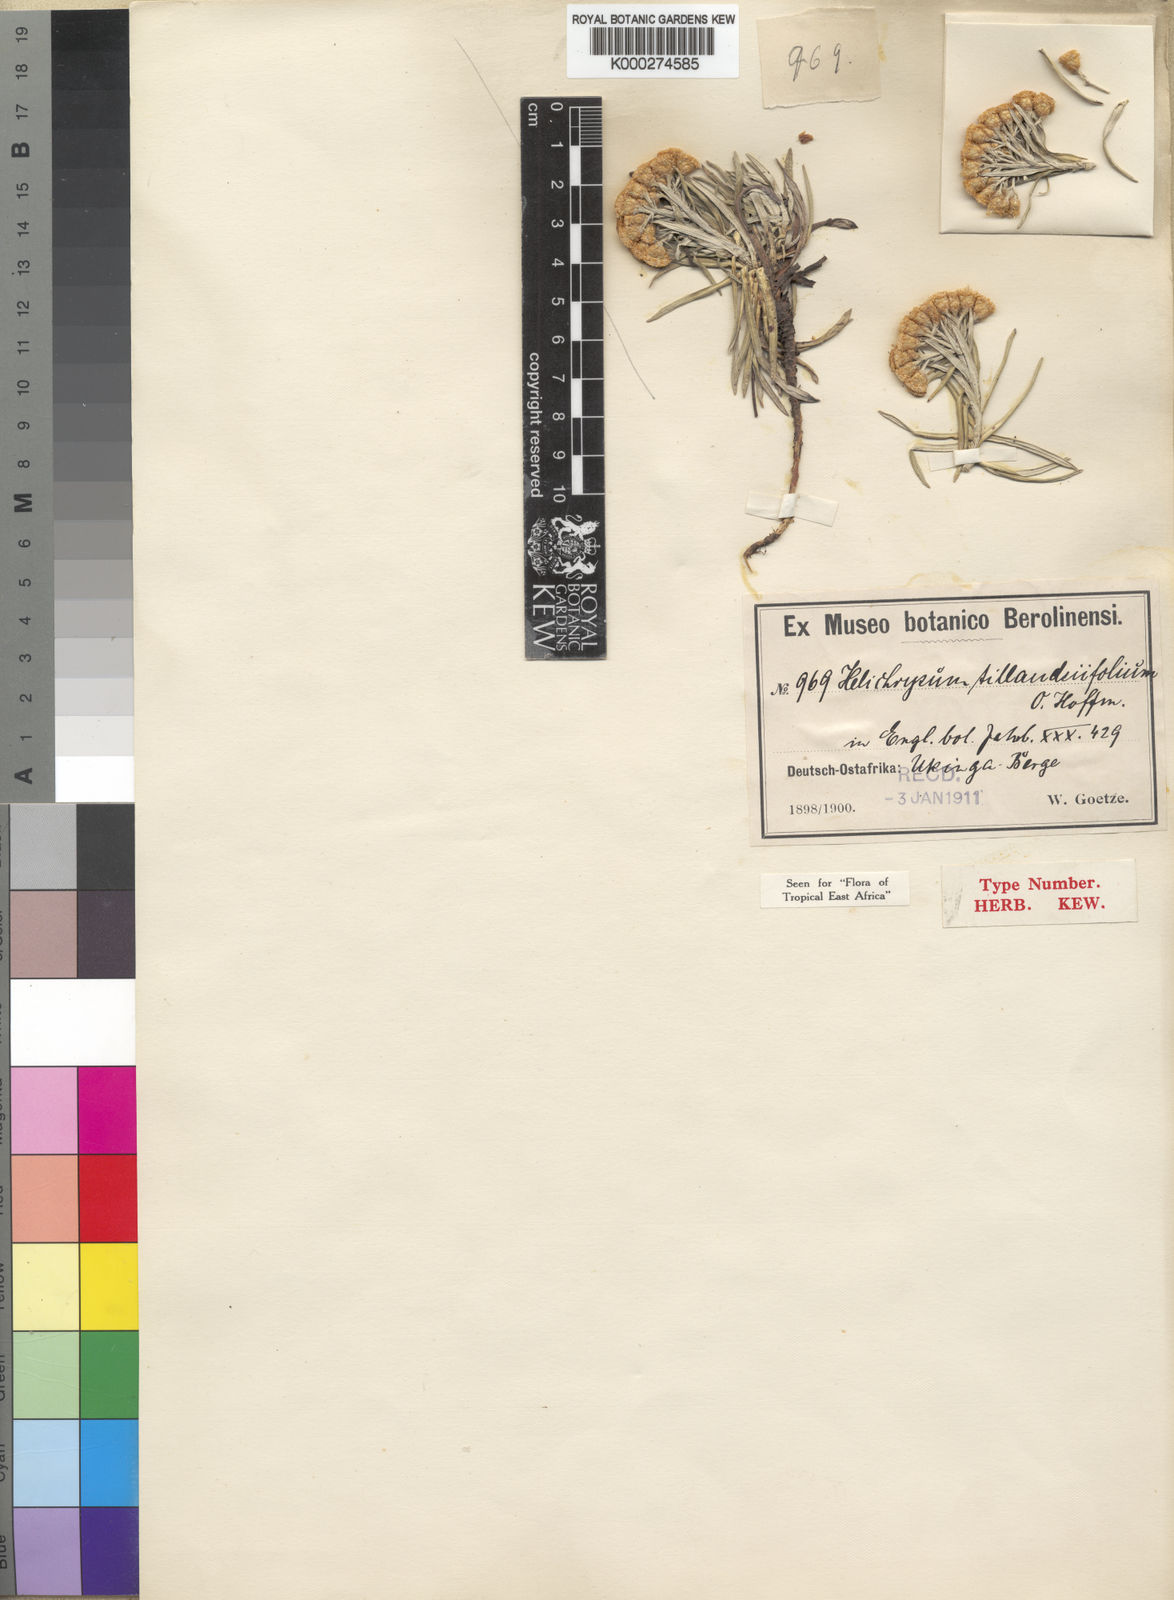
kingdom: Plantae
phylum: Tracheophyta
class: Magnoliopsida
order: Asterales
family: Asteraceae
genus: Helichrysum
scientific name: Helichrysum tillandsiifolium
